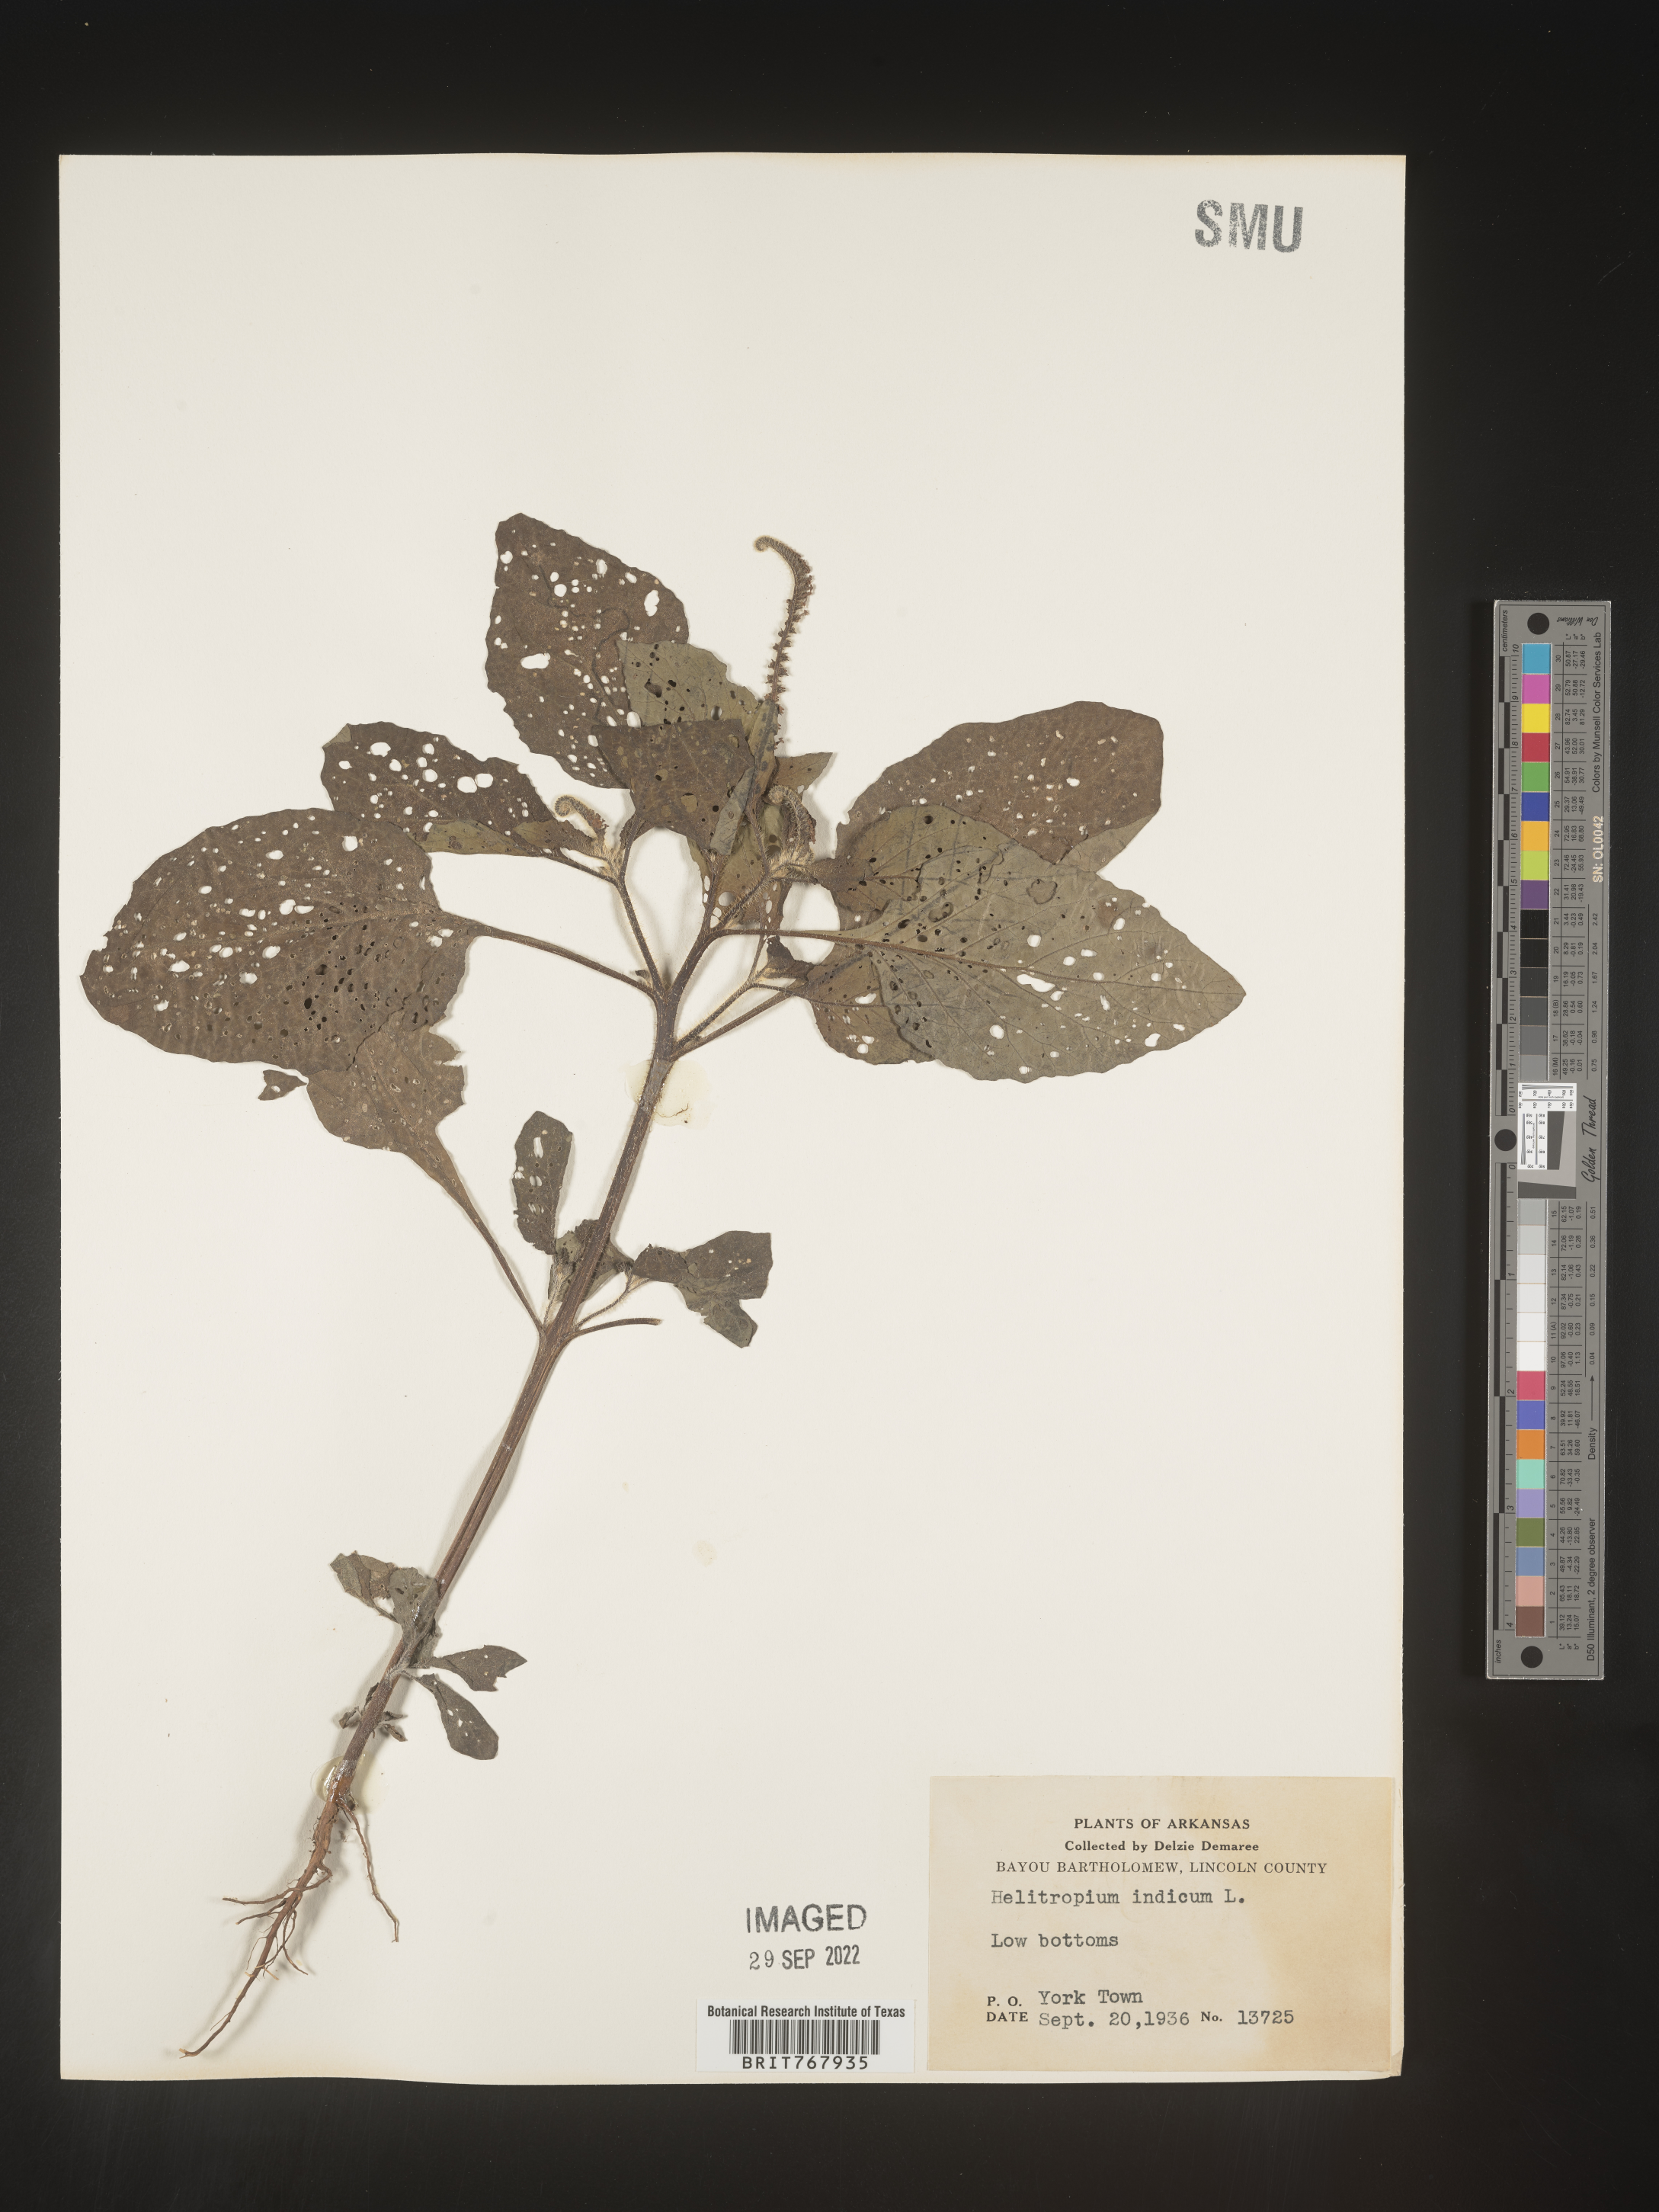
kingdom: Plantae
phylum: Tracheophyta
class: Magnoliopsida
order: Boraginales
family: Heliotropiaceae
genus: Heliotropium
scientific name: Heliotropium indicum
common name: Indian heliotrope
